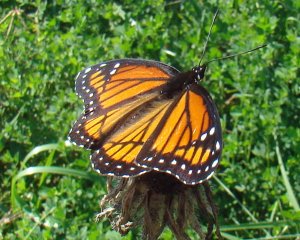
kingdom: Animalia
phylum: Arthropoda
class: Insecta
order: Lepidoptera
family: Nymphalidae
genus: Limenitis
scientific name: Limenitis archippus
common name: Viceroy
